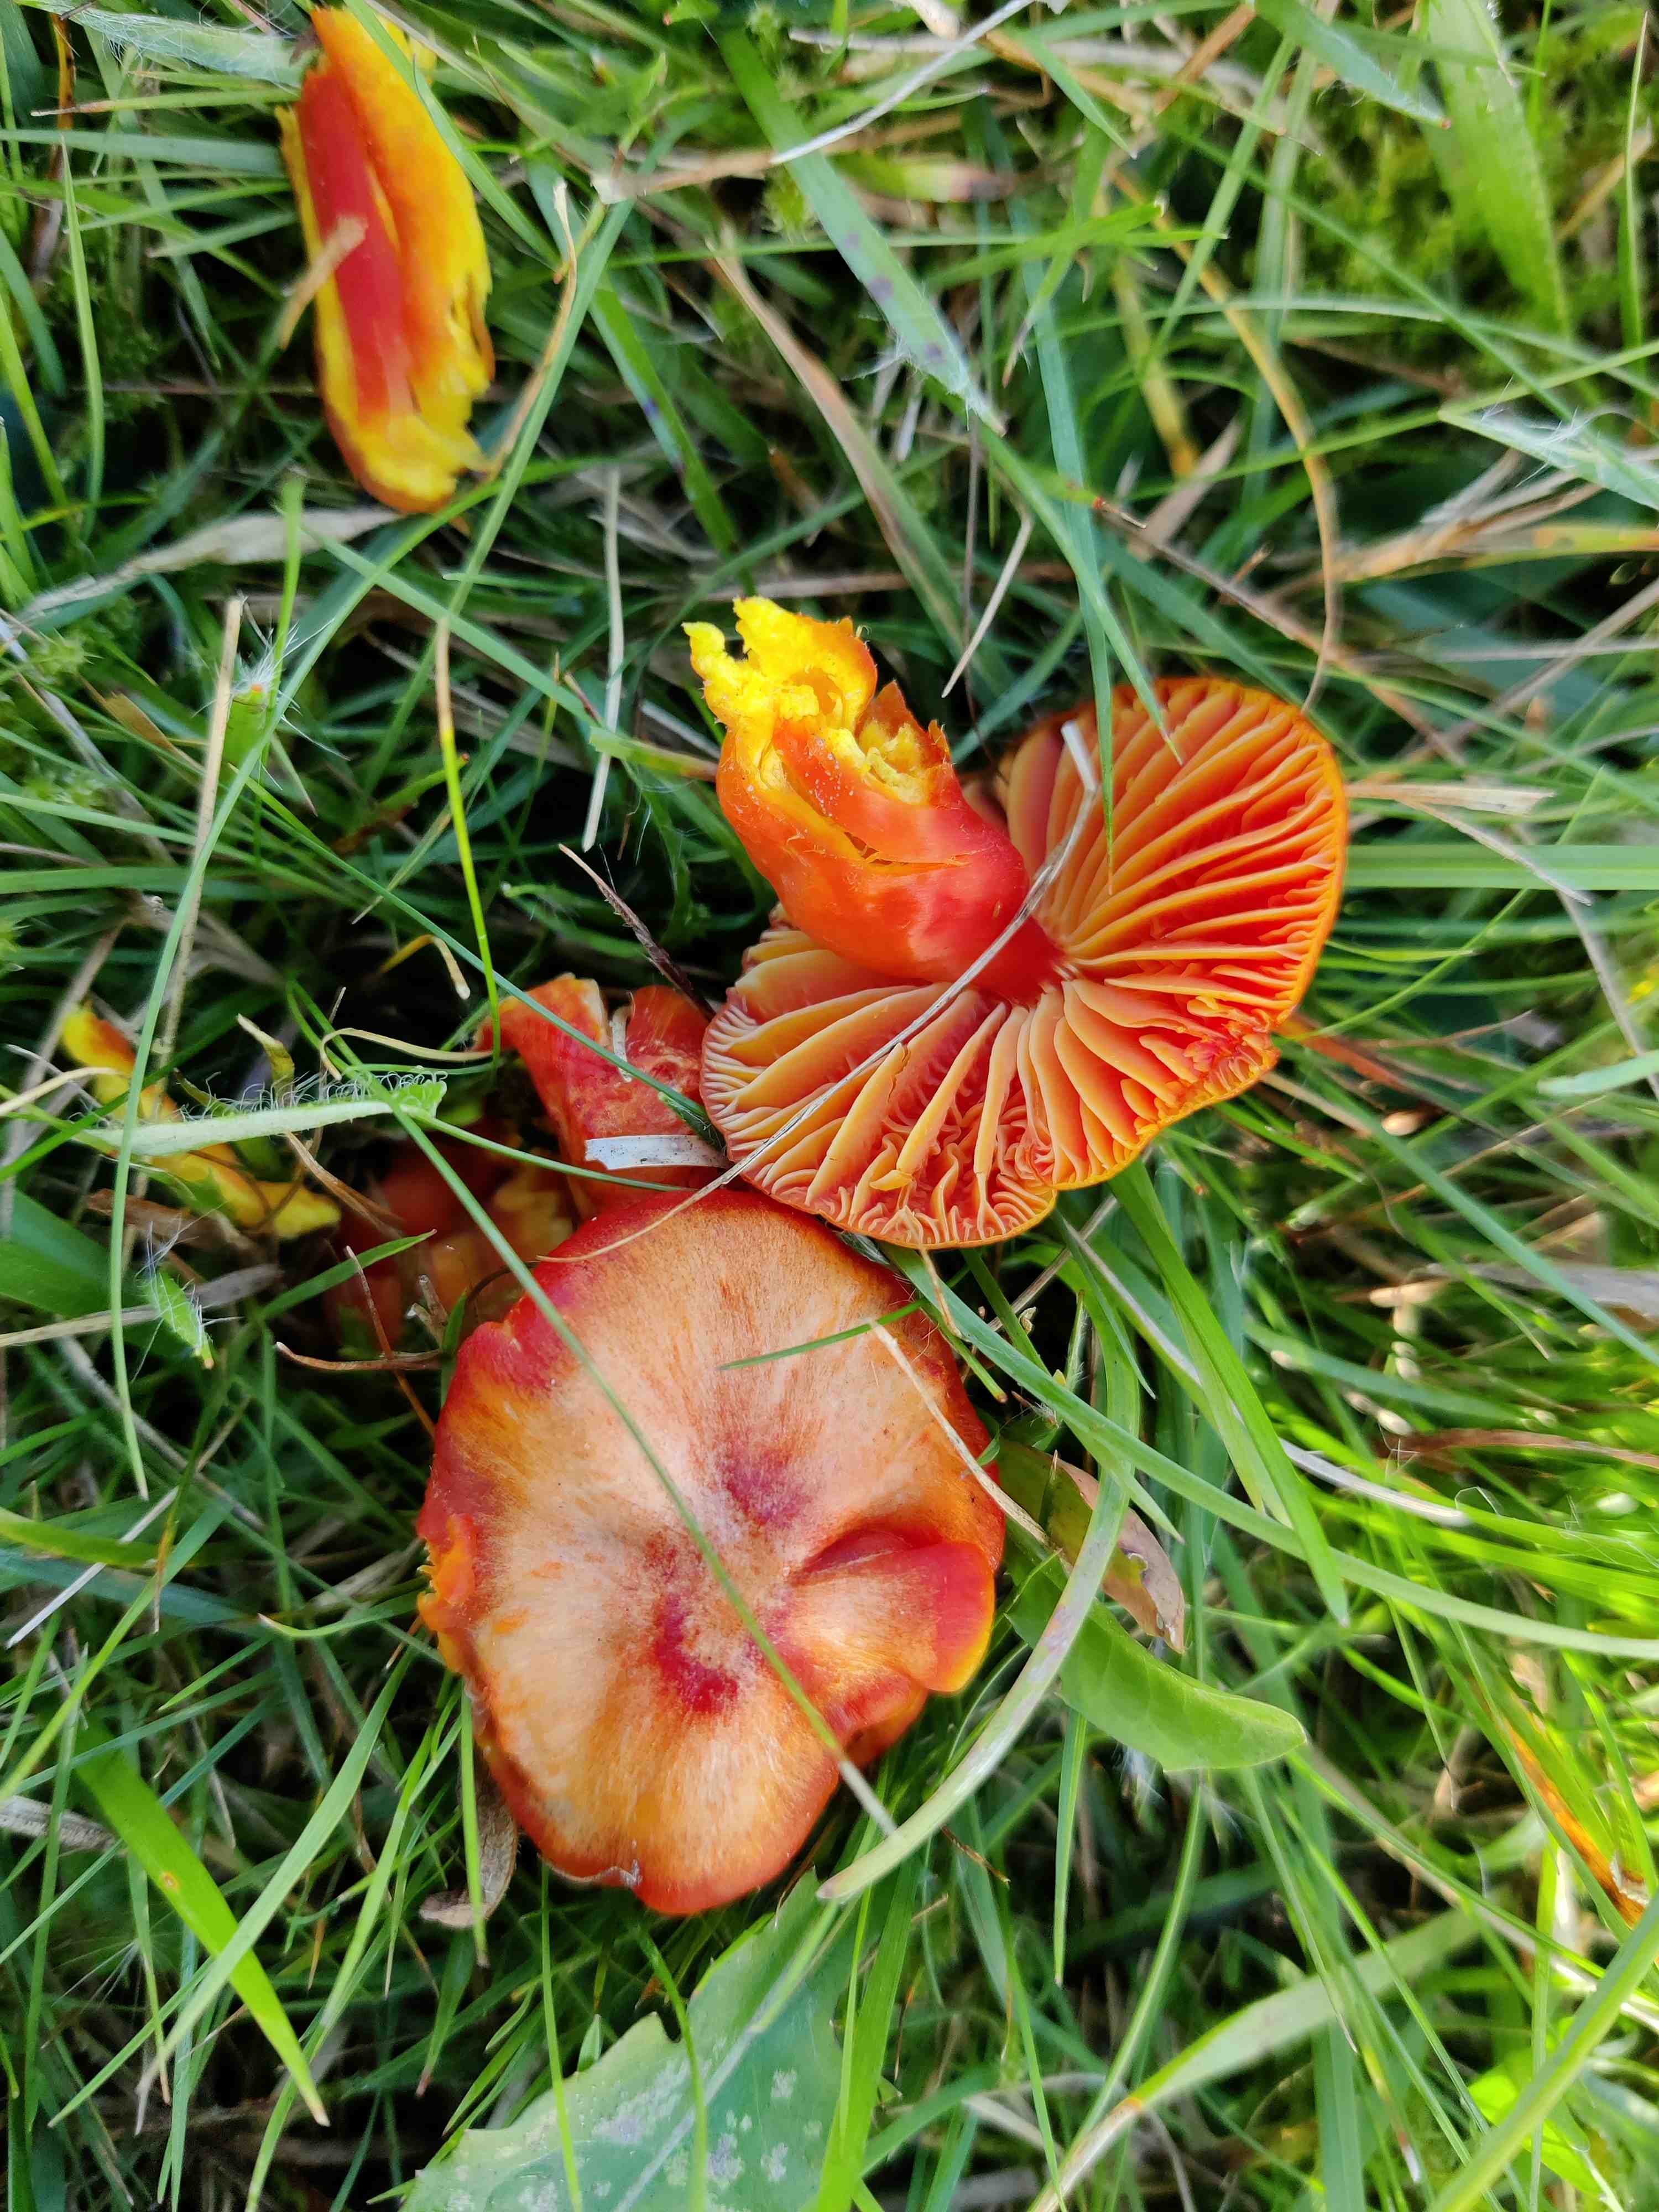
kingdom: Fungi
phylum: Basidiomycota
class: Agaricomycetes
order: Agaricales
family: Hygrophoraceae
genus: Hygrocybe
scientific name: Hygrocybe coccinea
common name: cinnober-vokshat
